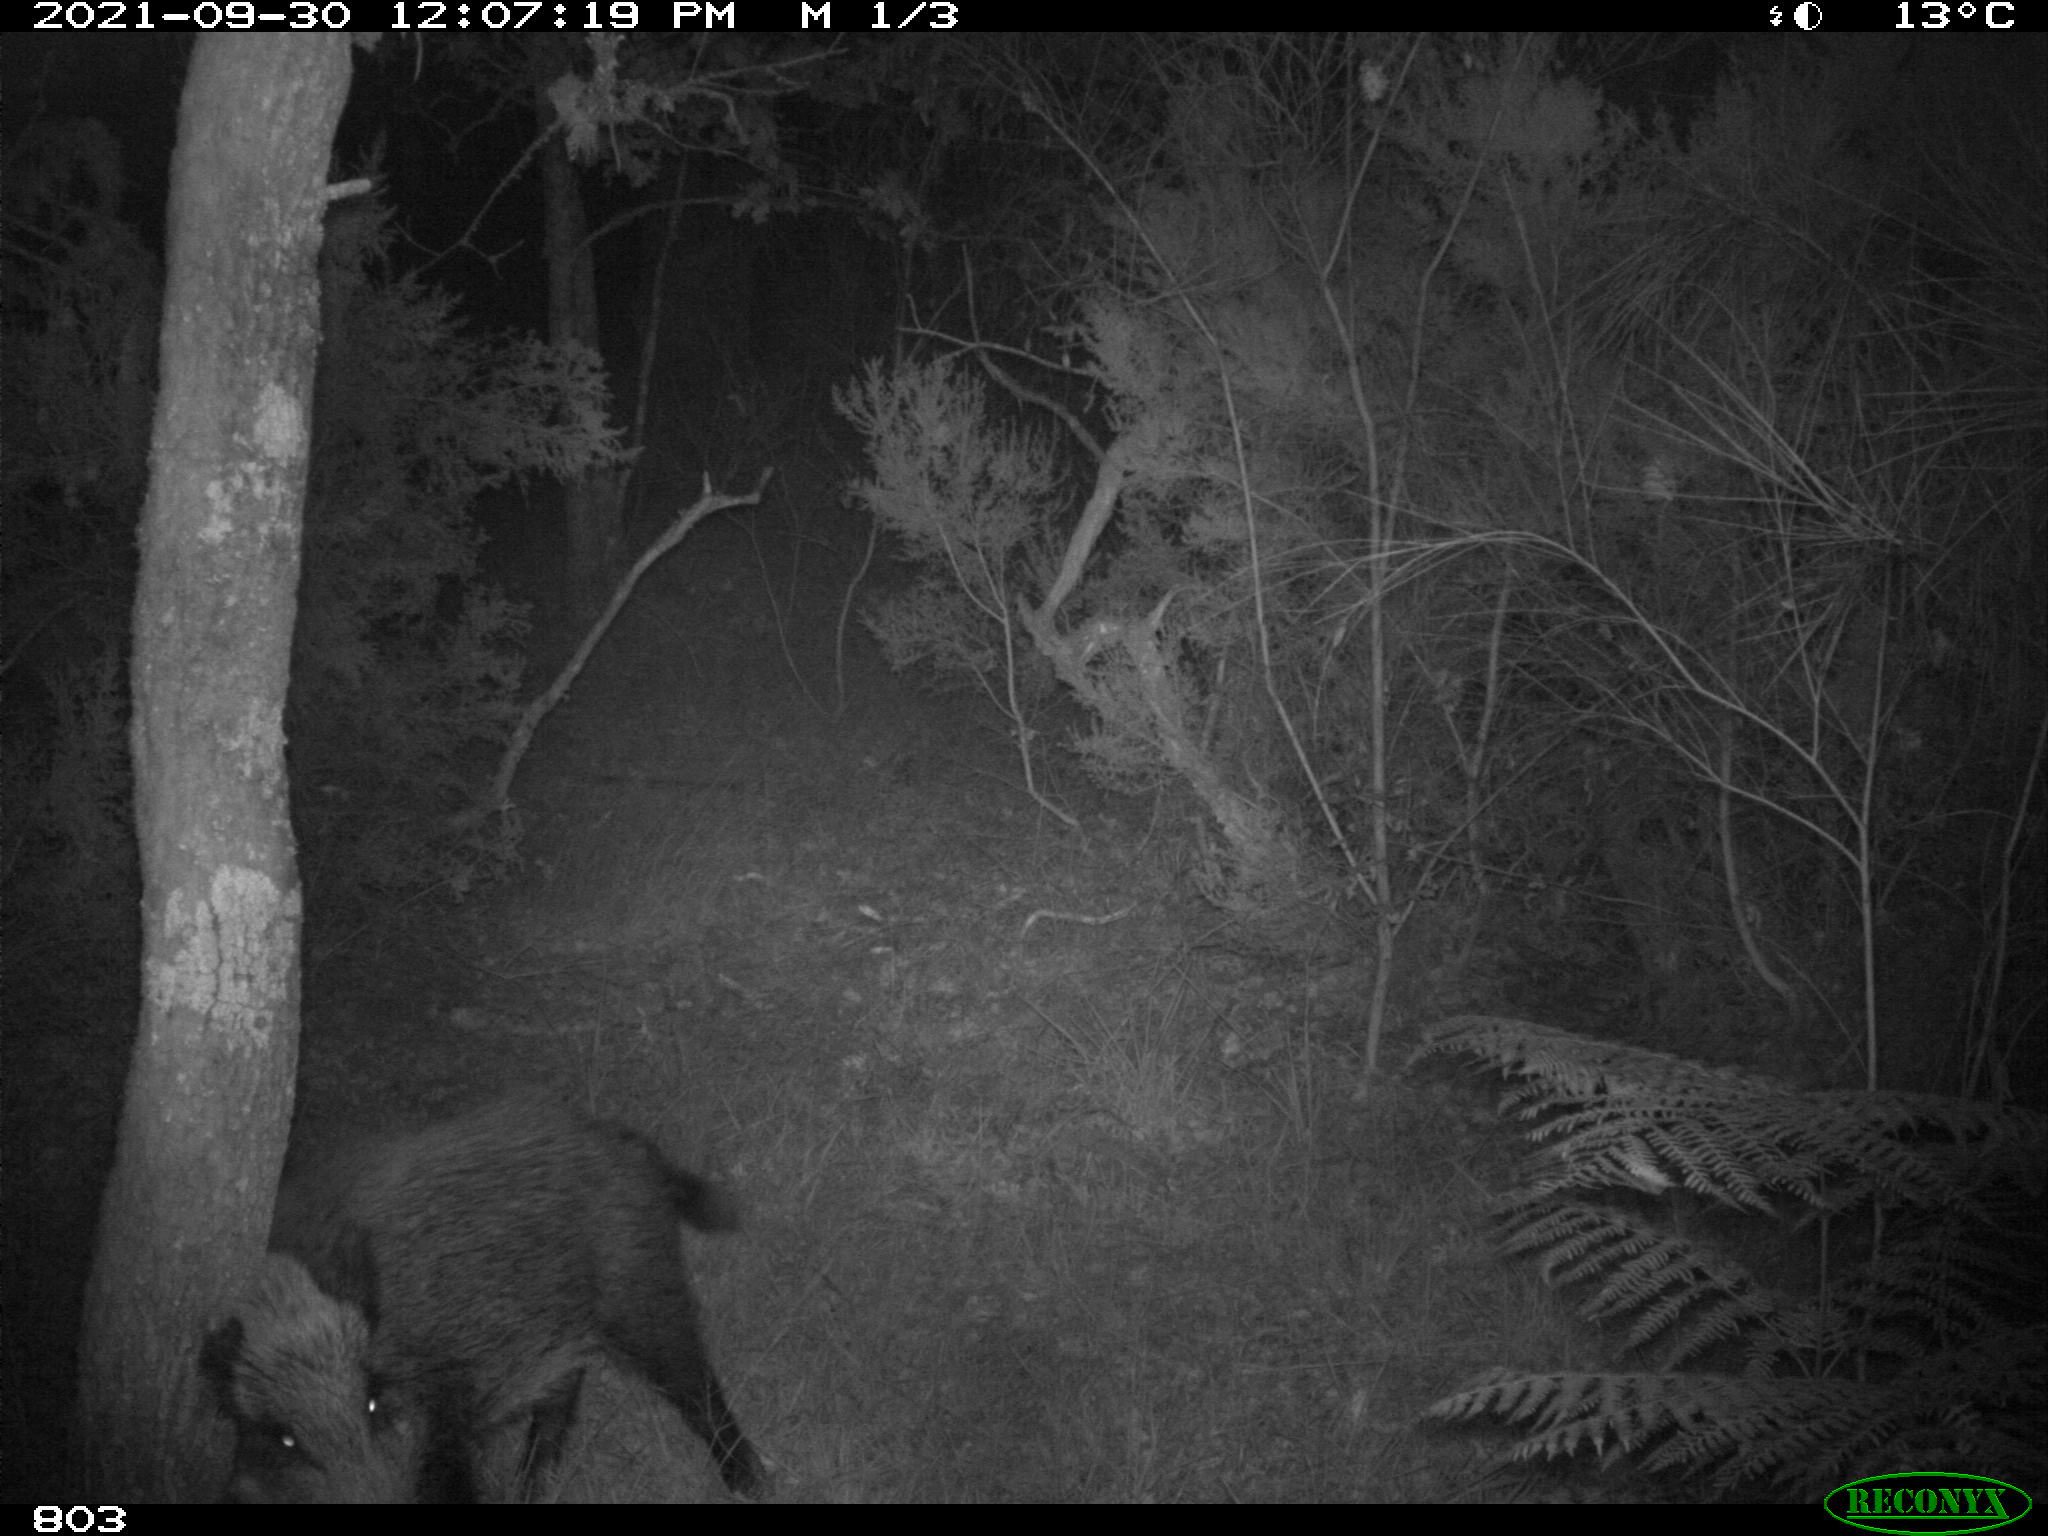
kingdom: Animalia
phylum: Chordata
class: Mammalia
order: Artiodactyla
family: Suidae
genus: Sus
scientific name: Sus scrofa
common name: Wild boar
